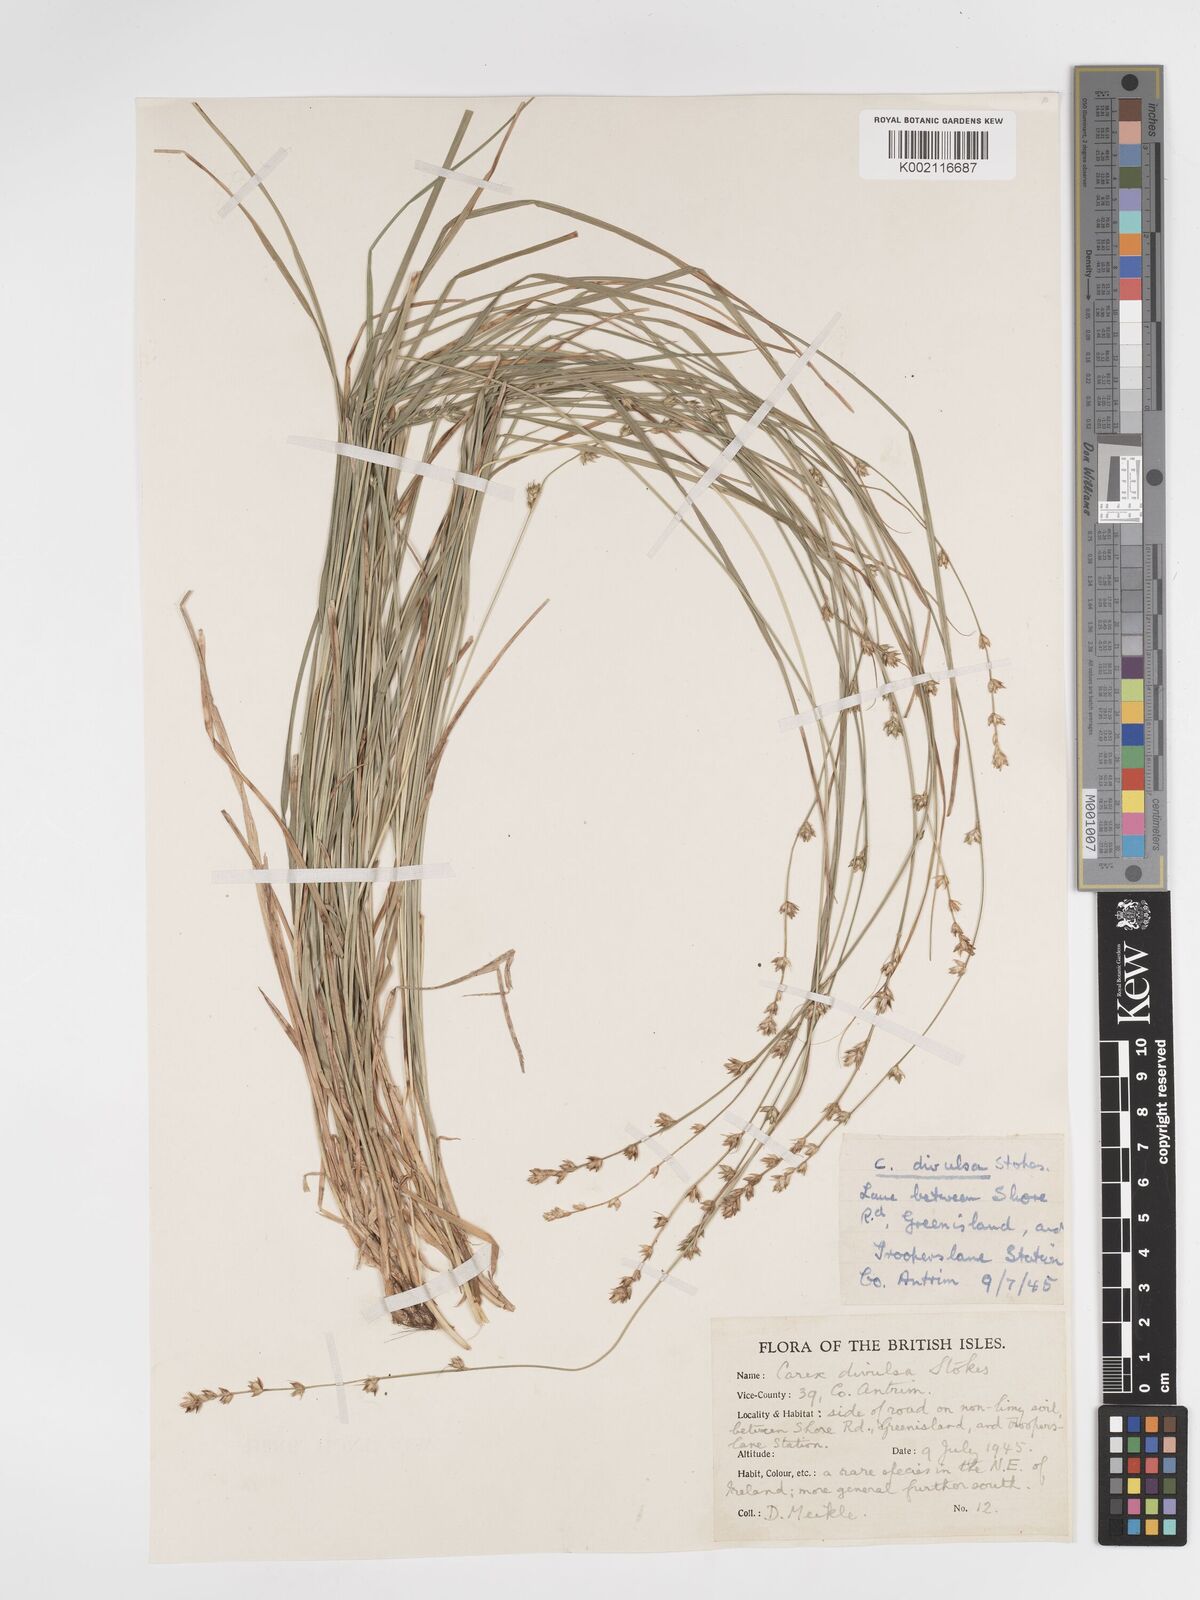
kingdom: Plantae
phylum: Tracheophyta
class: Liliopsida
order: Poales
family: Cyperaceae
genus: Carex
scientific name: Carex divulsa
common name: Grassland sedge
